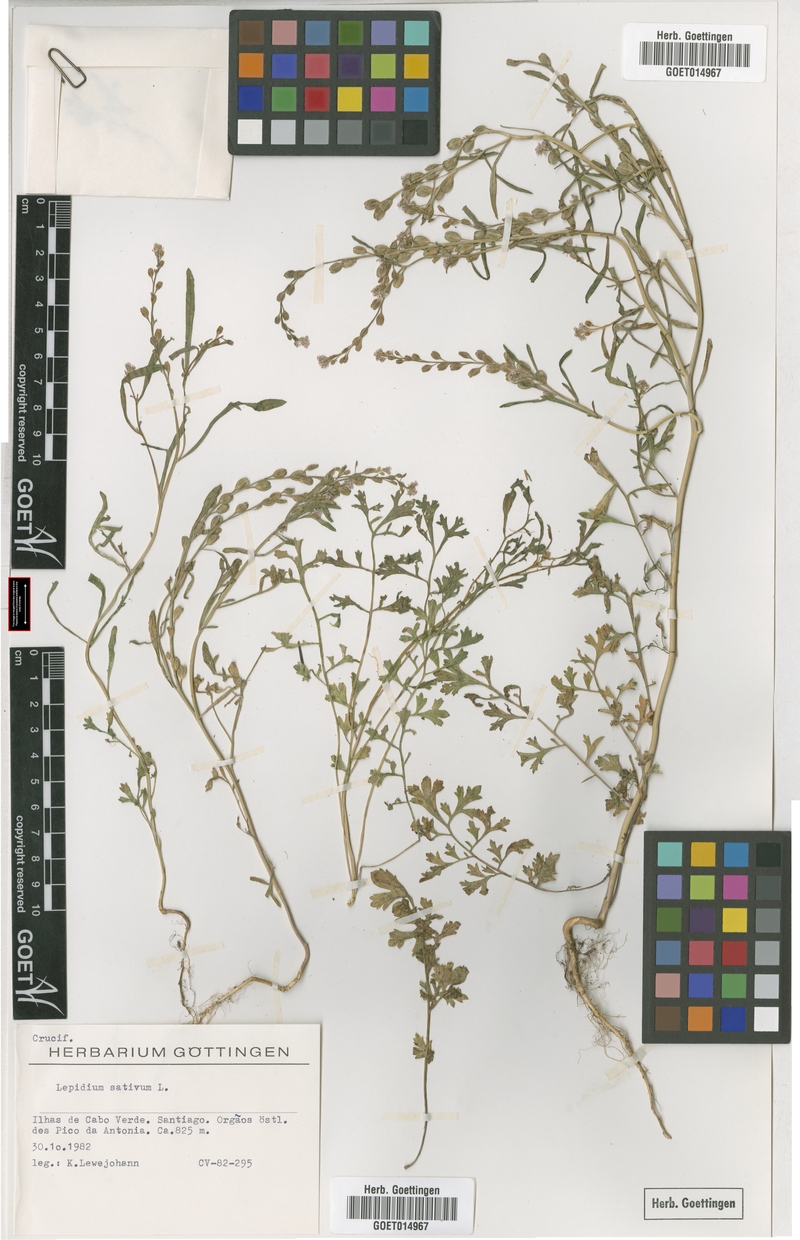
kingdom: Plantae
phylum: Tracheophyta
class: Magnoliopsida
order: Brassicales
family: Brassicaceae
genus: Lepidium
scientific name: Lepidium sativum
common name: Garden cress
